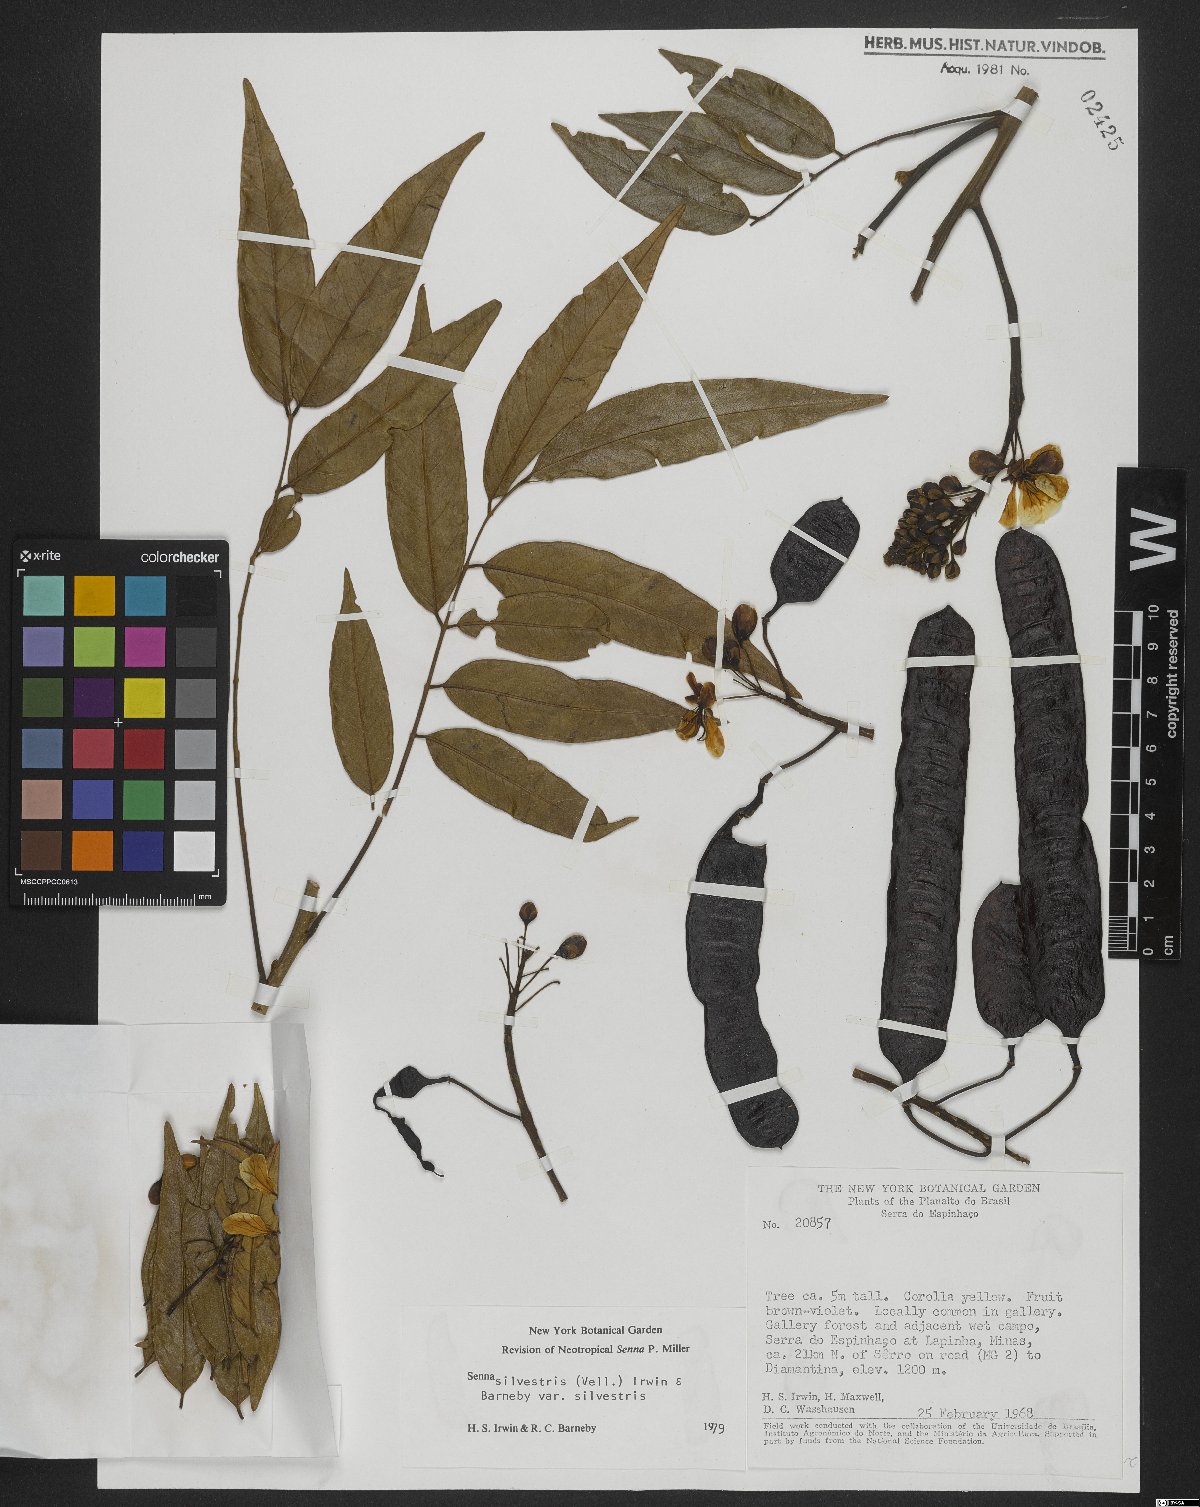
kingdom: Plantae
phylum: Tracheophyta
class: Magnoliopsida
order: Fabales
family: Fabaceae
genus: Senna
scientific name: Senna silvestris
